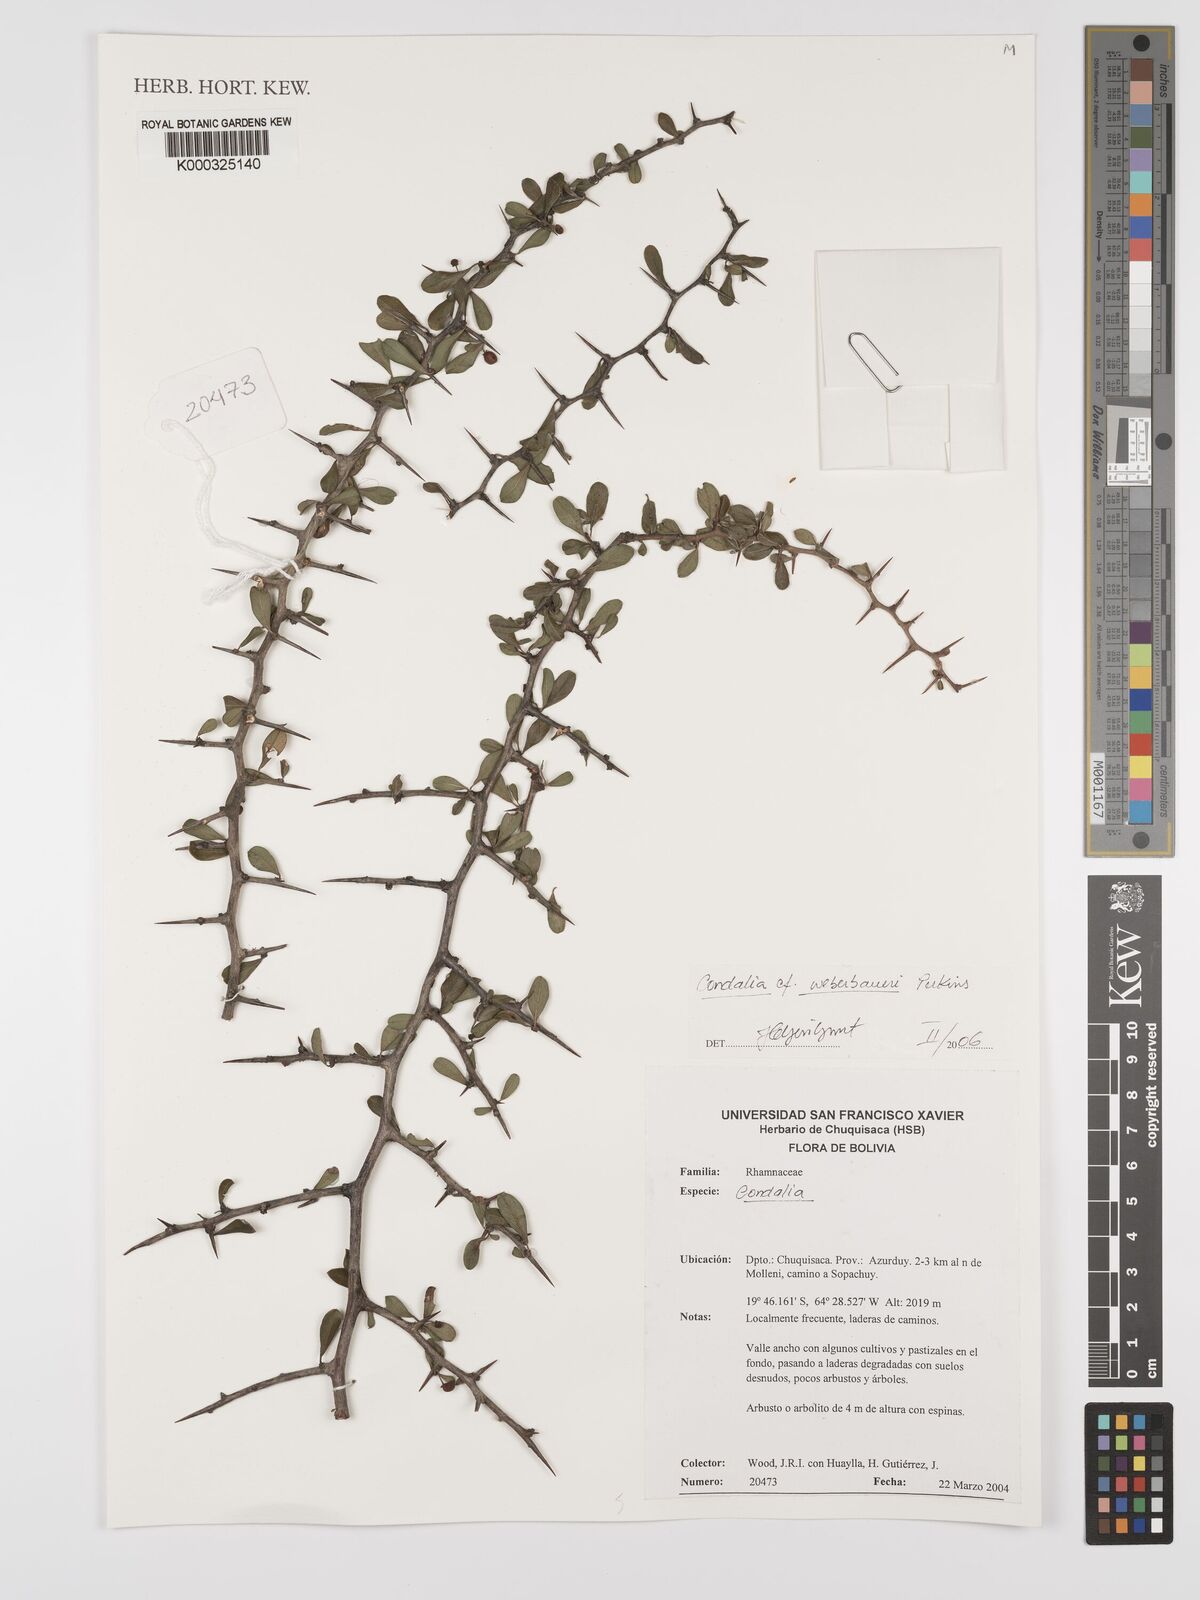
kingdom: Plantae
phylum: Tracheophyta
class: Magnoliopsida
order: Rosales
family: Rhamnaceae
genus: Condalia
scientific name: Condalia weberbaueri
